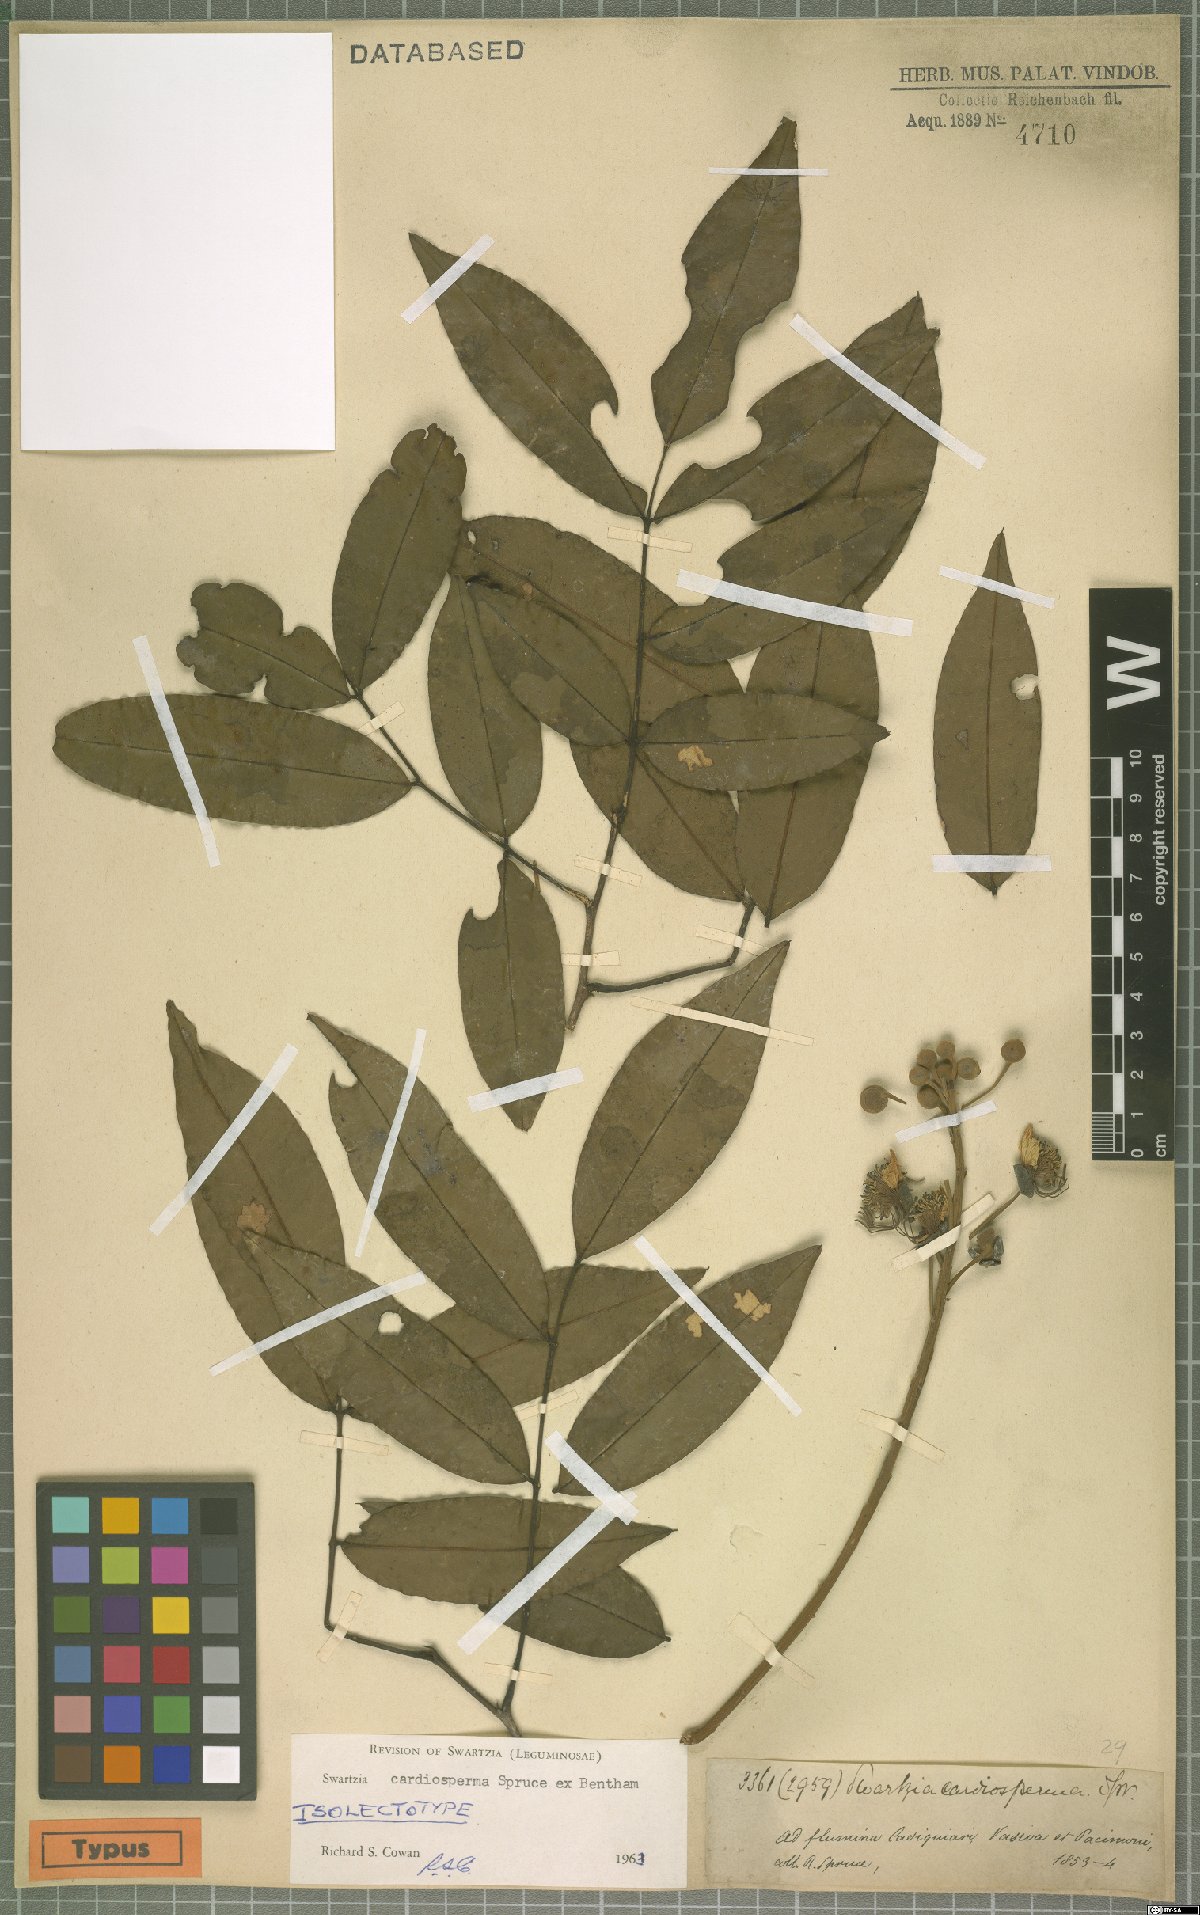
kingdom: Plantae
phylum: Tracheophyta
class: Magnoliopsida
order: Fabales
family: Fabaceae
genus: Swartzia
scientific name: Swartzia cardiosperma
